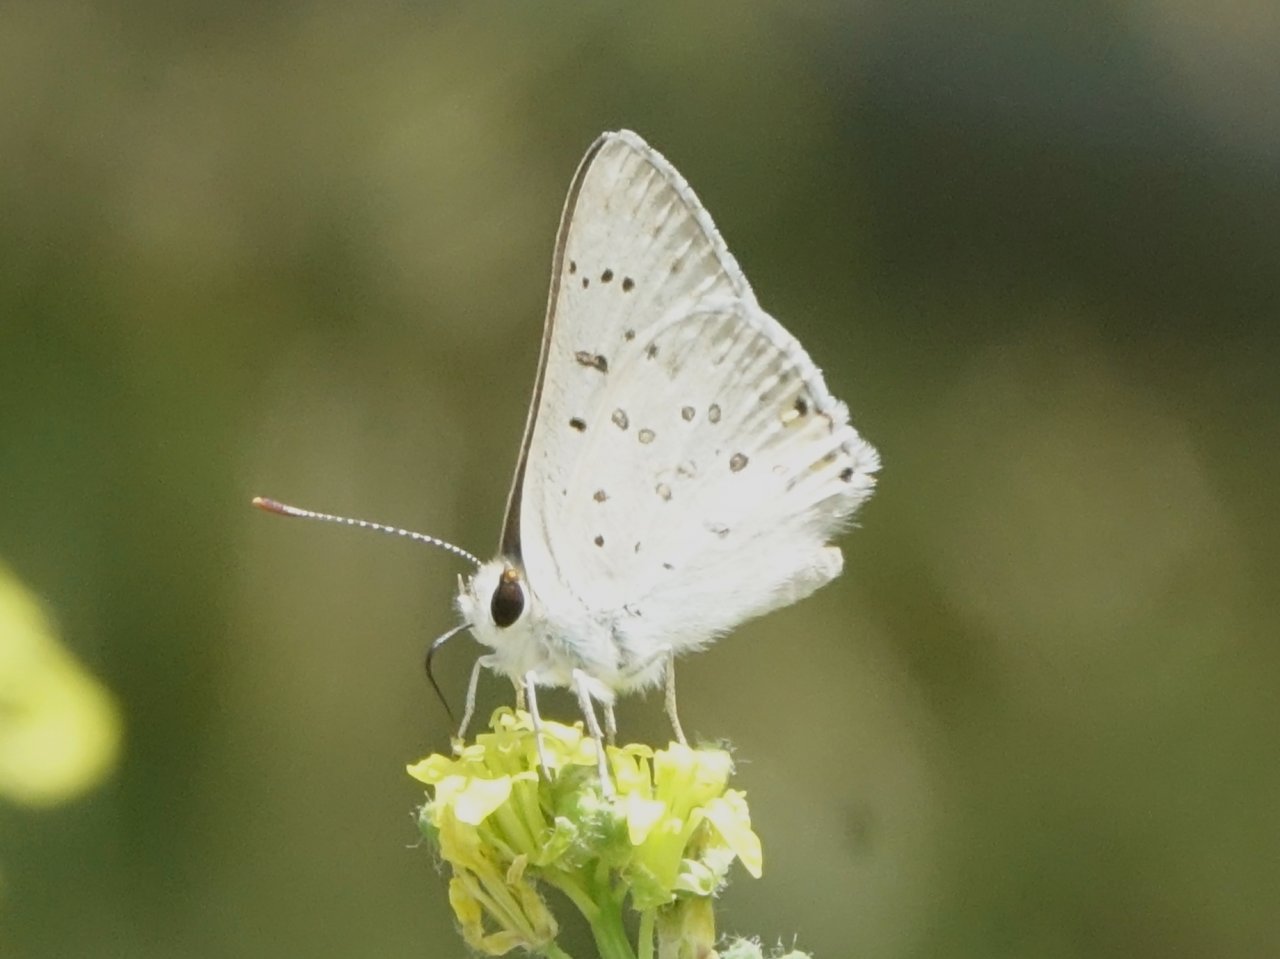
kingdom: Animalia
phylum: Arthropoda
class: Insecta
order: Lepidoptera
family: Lycaenidae
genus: Lycaena
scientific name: Lycaena xanthoides
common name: Great Copper
